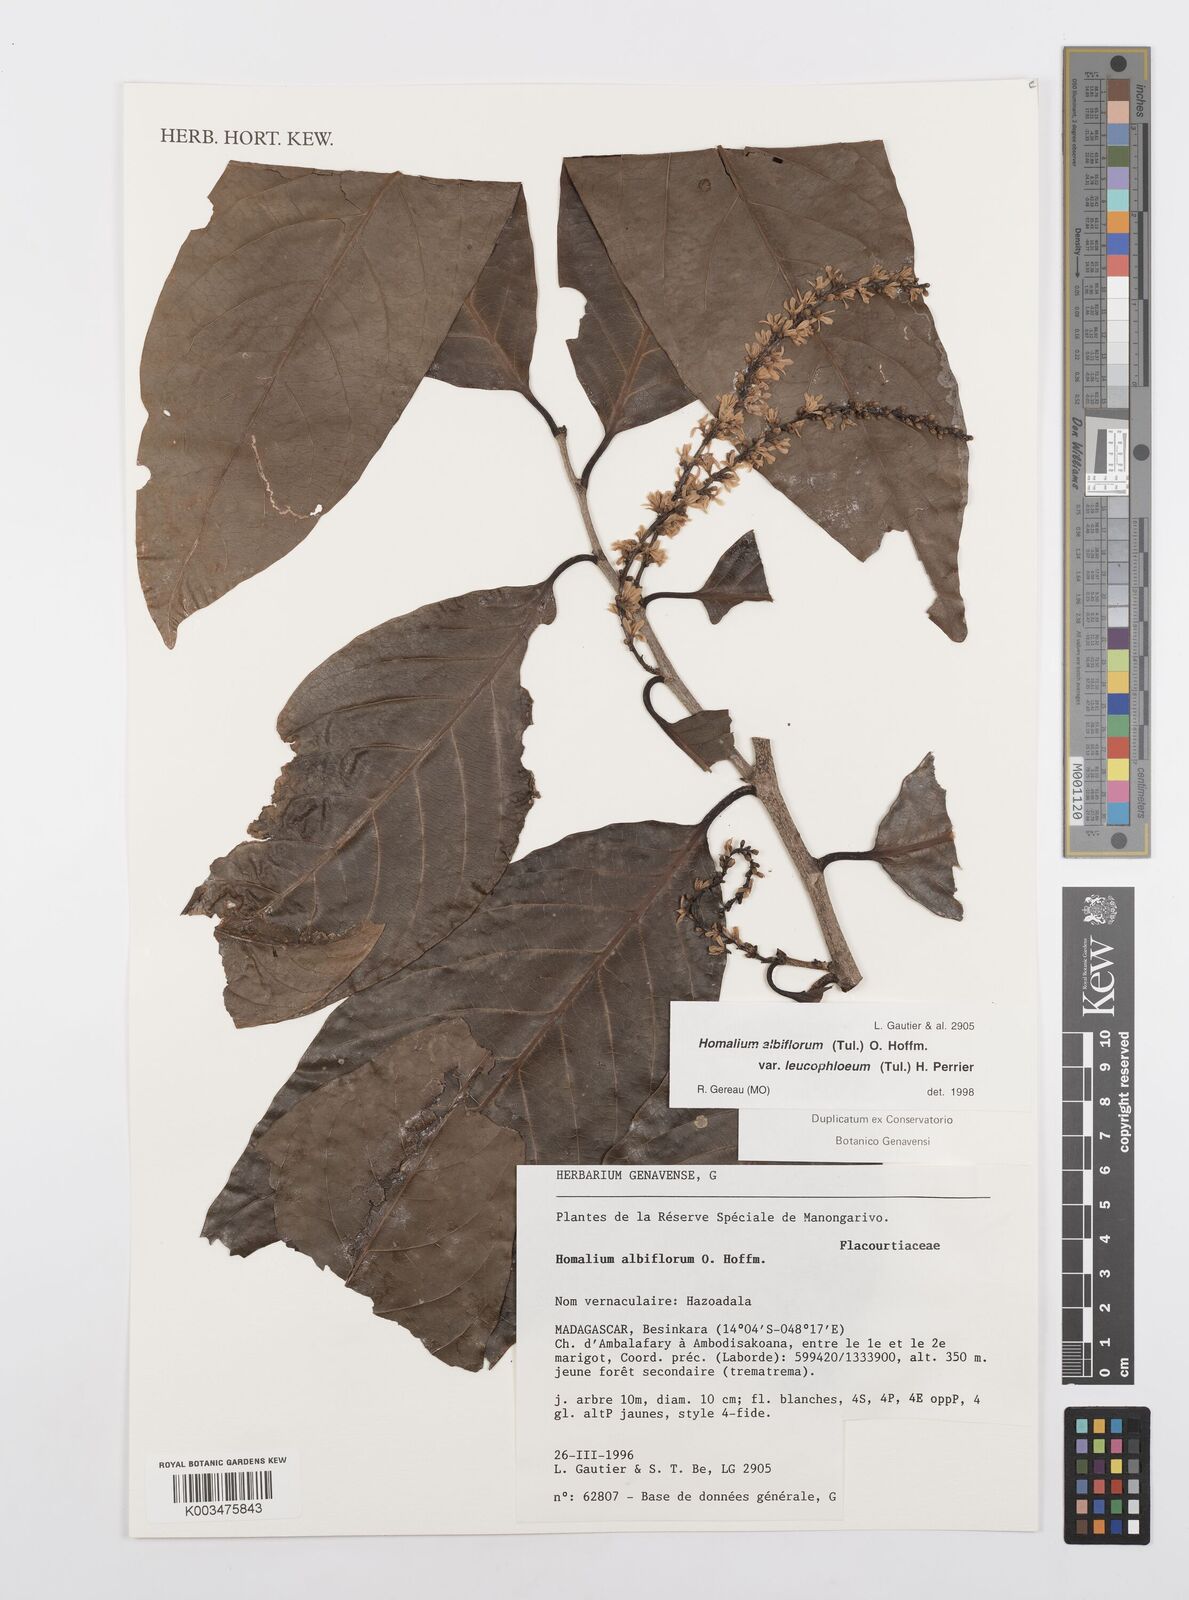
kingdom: Plantae
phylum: Tracheophyta
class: Magnoliopsida
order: Malpighiales
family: Salicaceae
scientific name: Salicaceae
